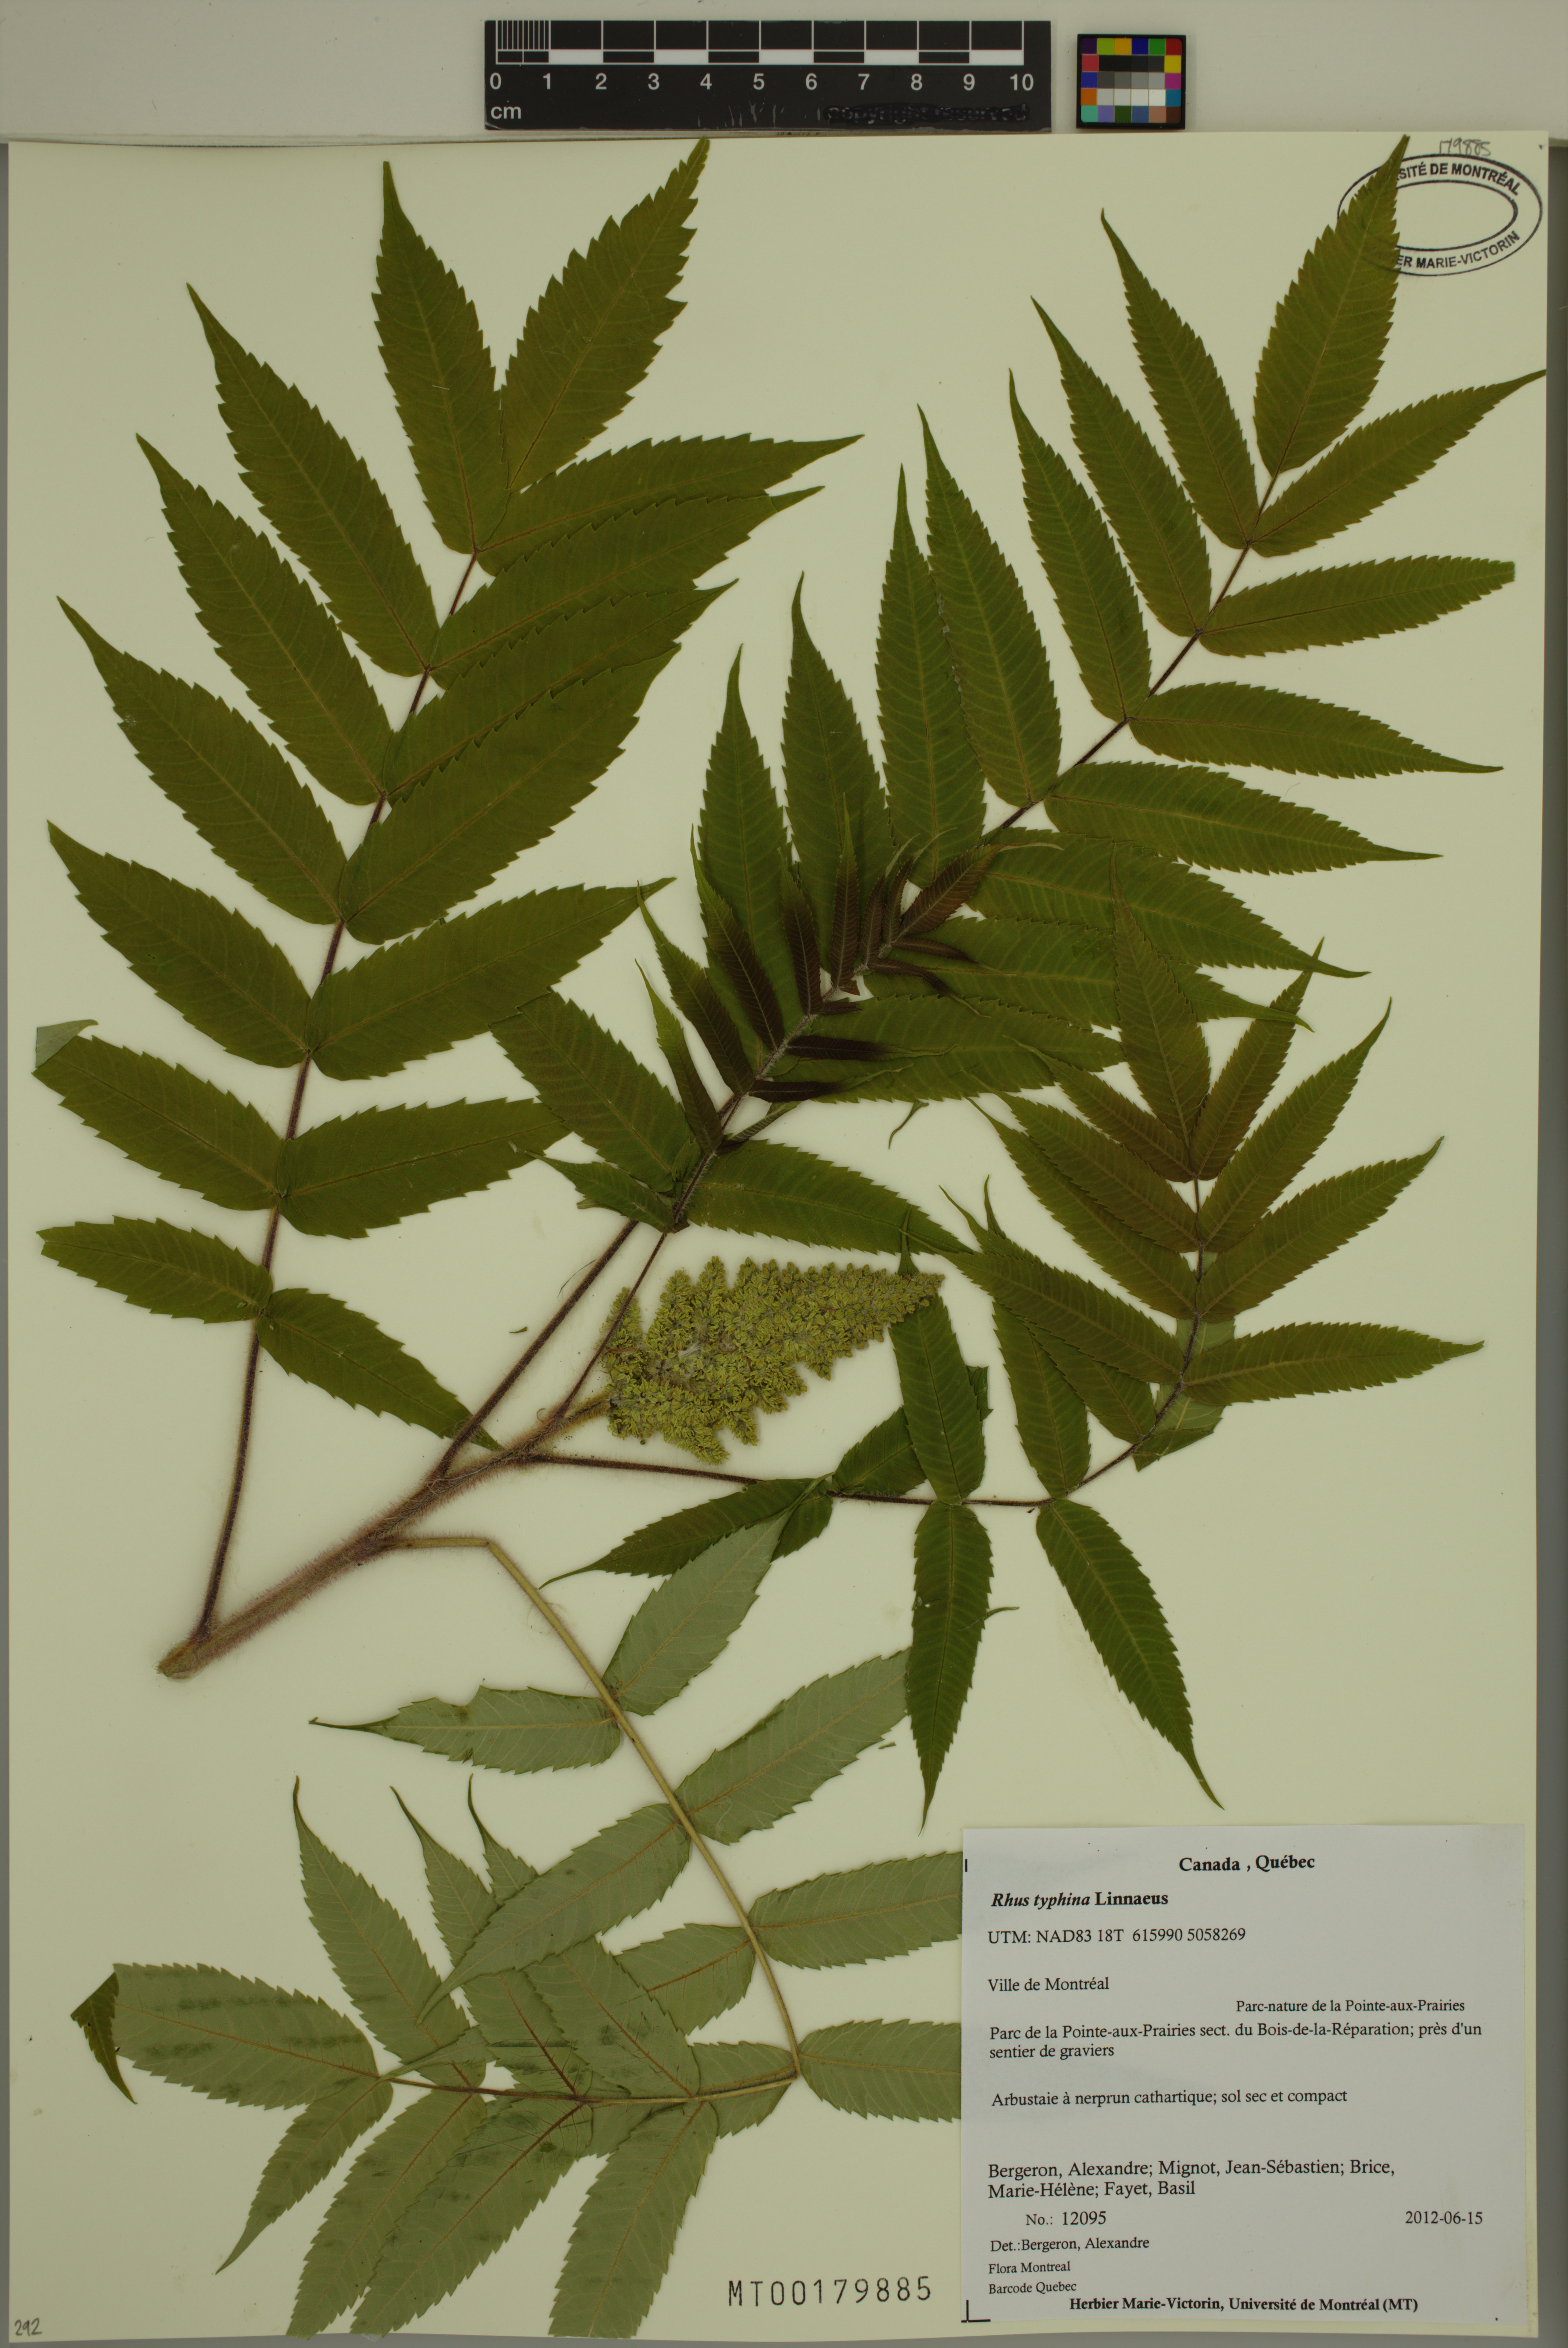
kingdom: Plantae
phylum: Tracheophyta
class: Magnoliopsida
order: Sapindales
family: Anacardiaceae
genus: Rhus
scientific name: Rhus typhina
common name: Staghorn sumac
